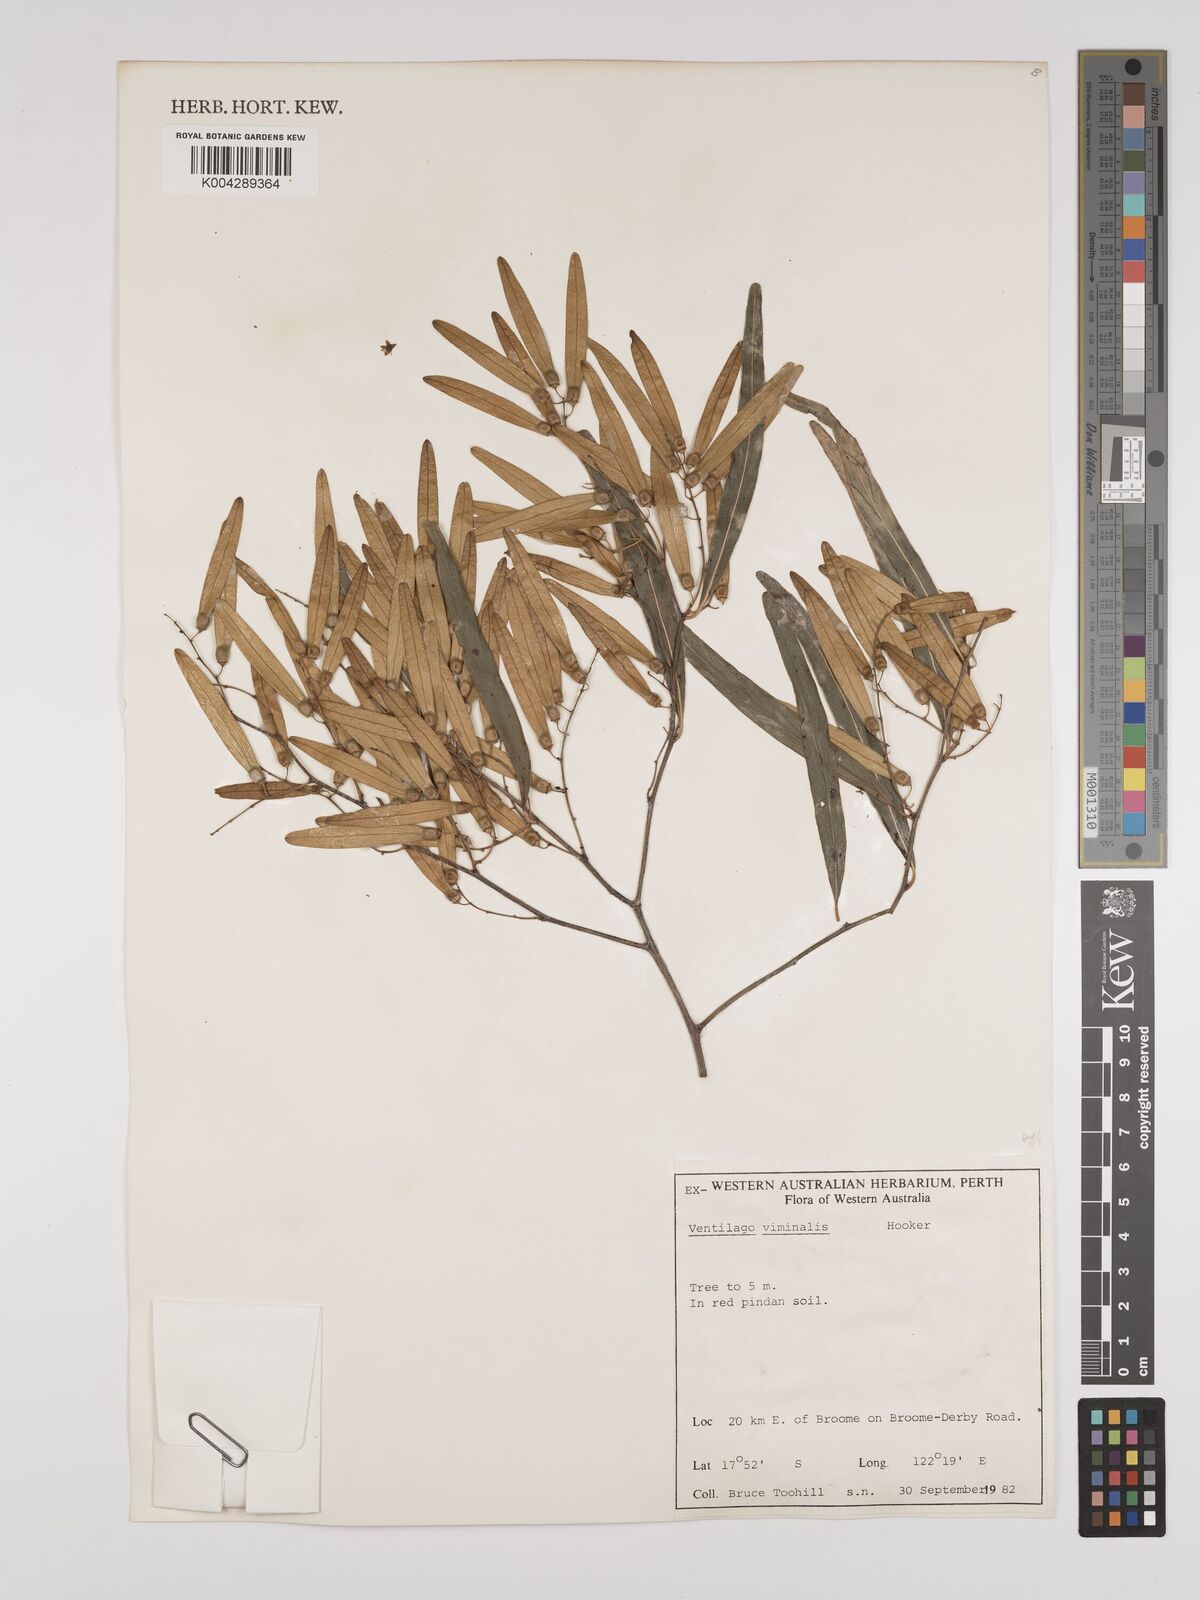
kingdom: Plantae
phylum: Tracheophyta
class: Magnoliopsida
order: Rosales
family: Rhamnaceae
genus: Ventilago
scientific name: Ventilago viminalis
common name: Medicine-bark
